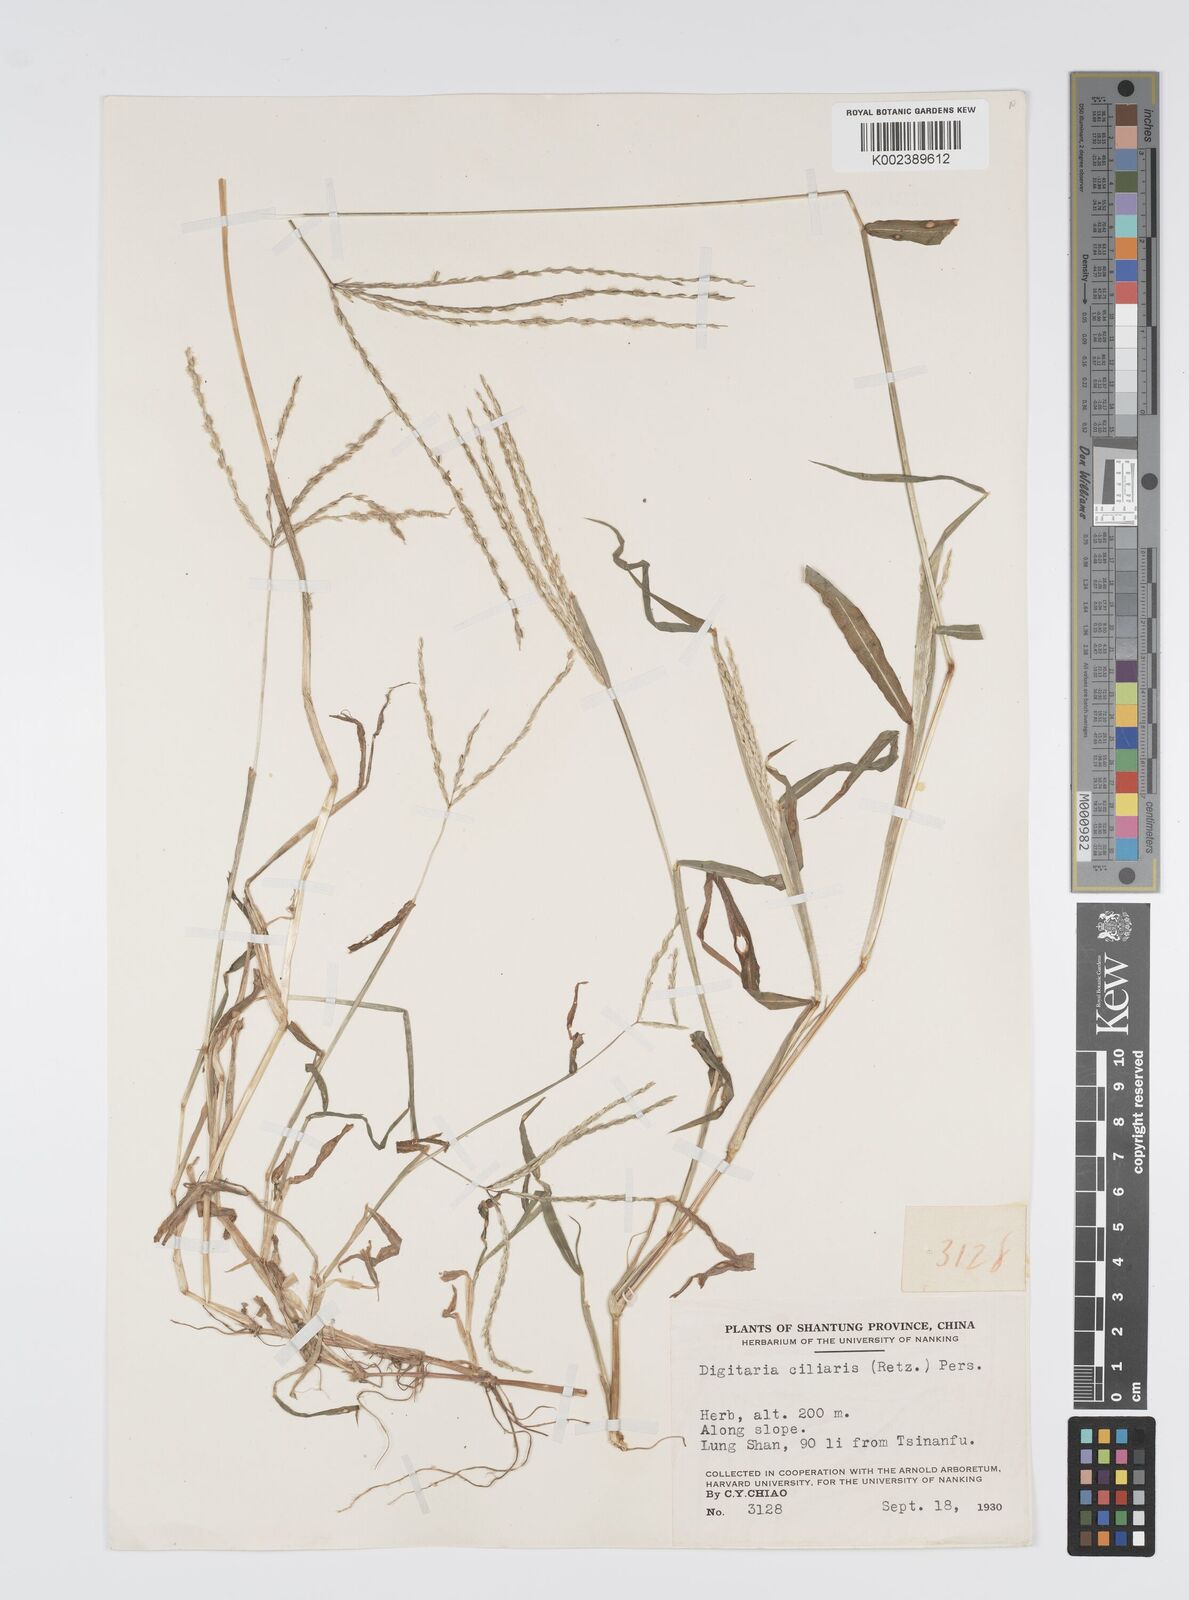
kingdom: Plantae
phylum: Tracheophyta
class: Liliopsida
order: Poales
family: Poaceae
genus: Digitaria
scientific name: Digitaria ciliaris
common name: Tropical finger-grass
